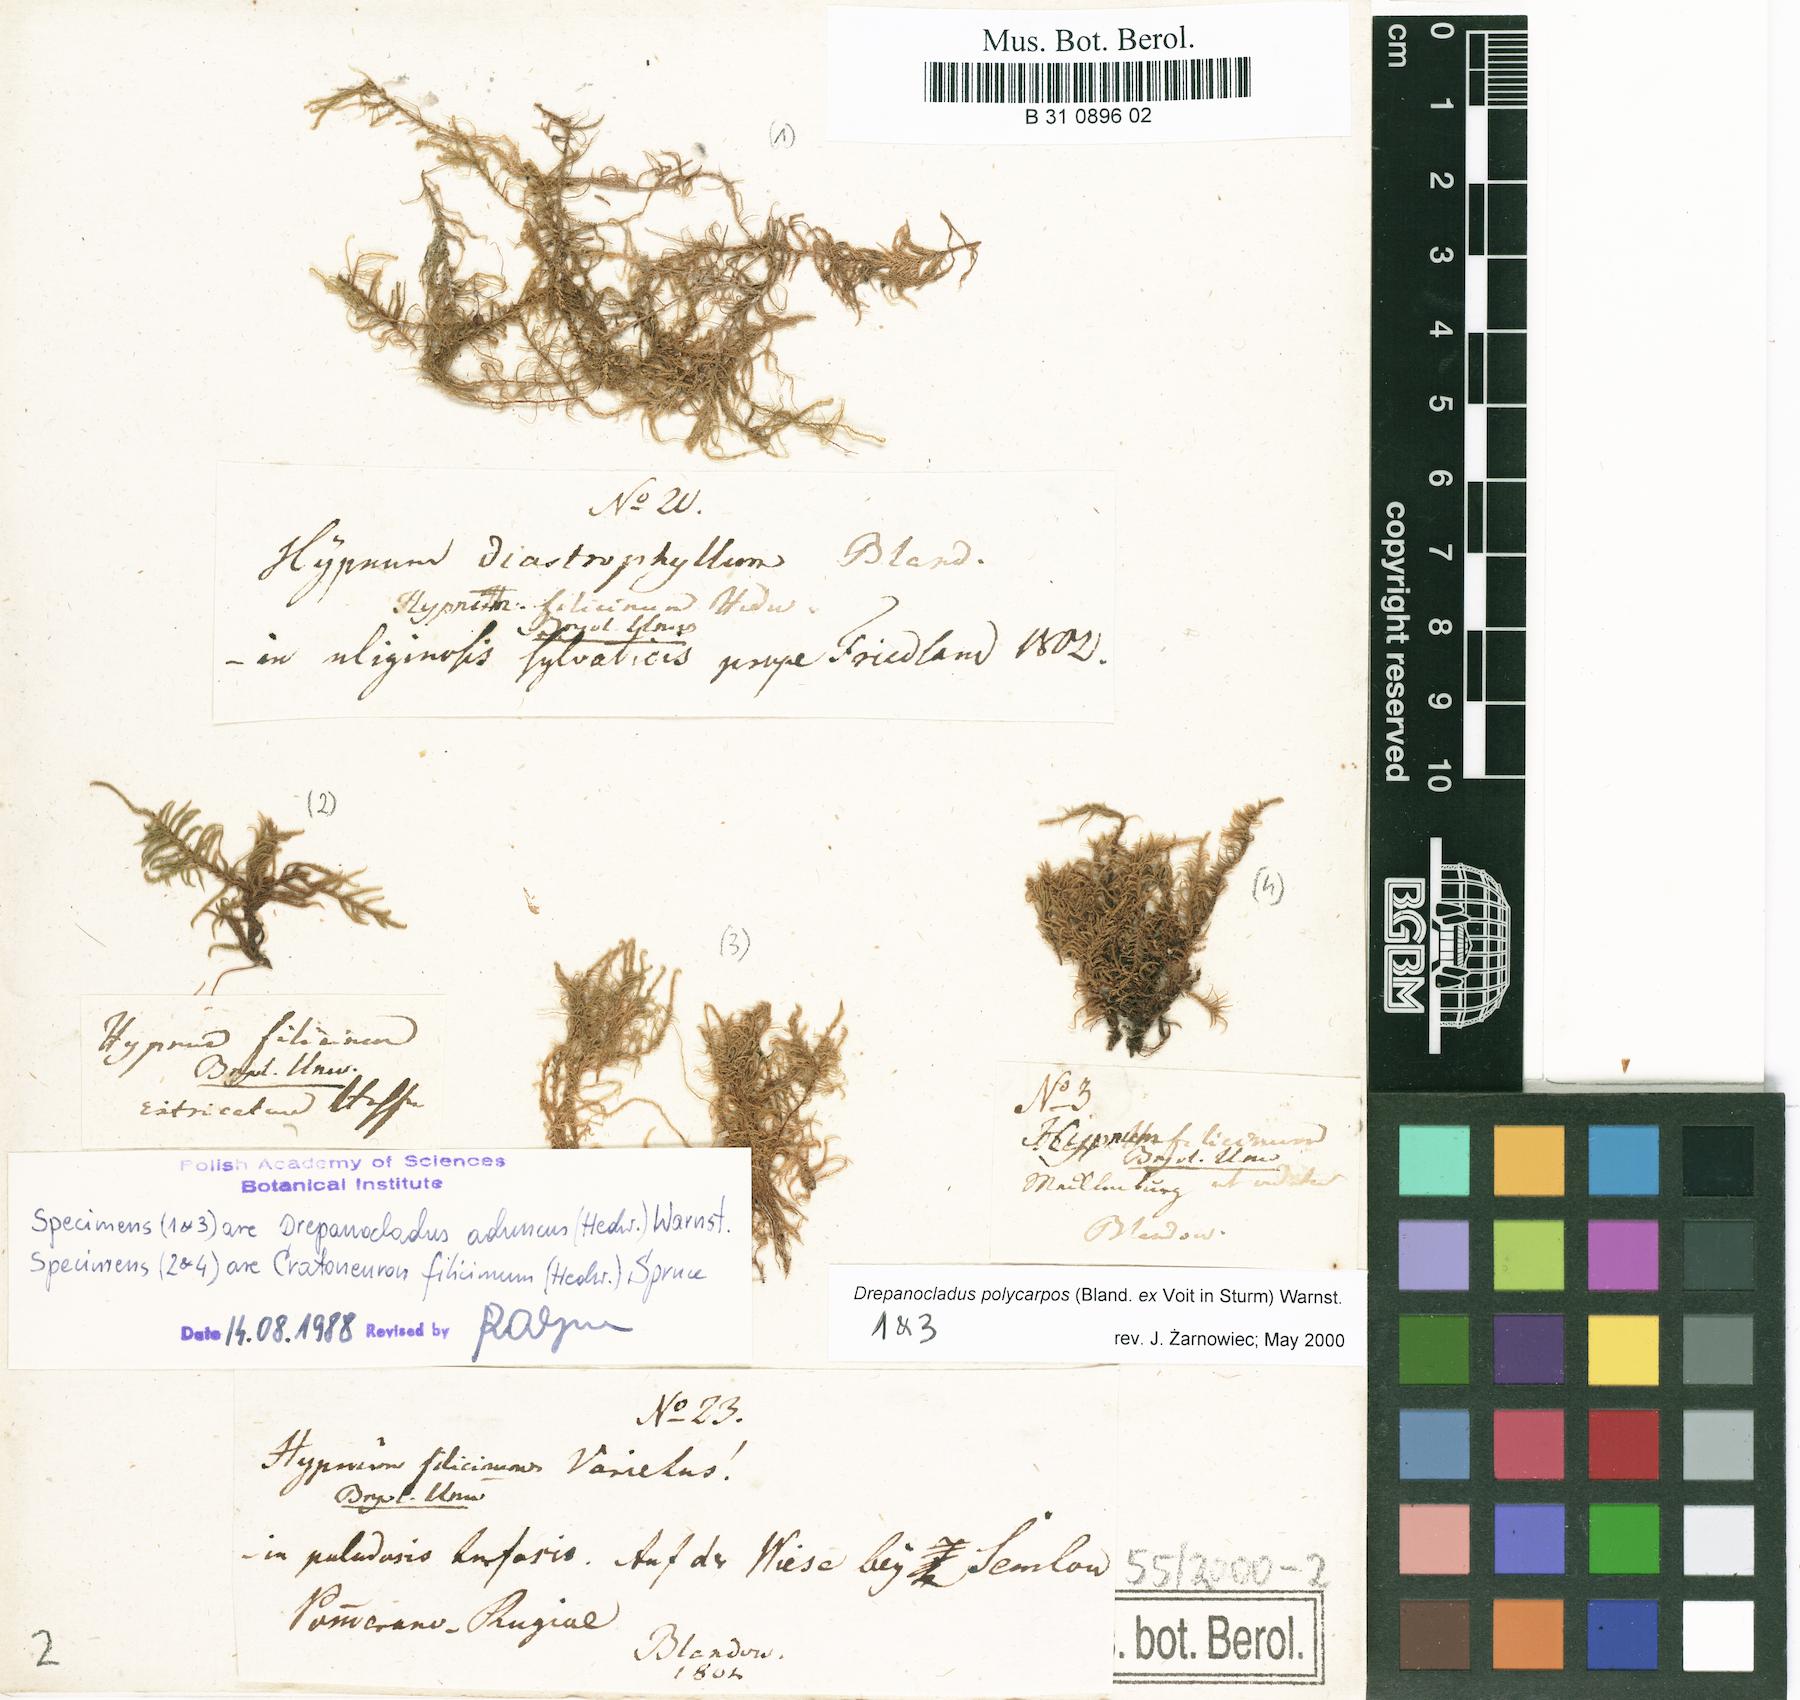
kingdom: Plantae
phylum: Bryophyta
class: Bryopsida
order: Hypnales
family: Amblystegiaceae
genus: Cratoneuron
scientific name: Cratoneuron filicinum
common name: Fern-leaved hook moss
